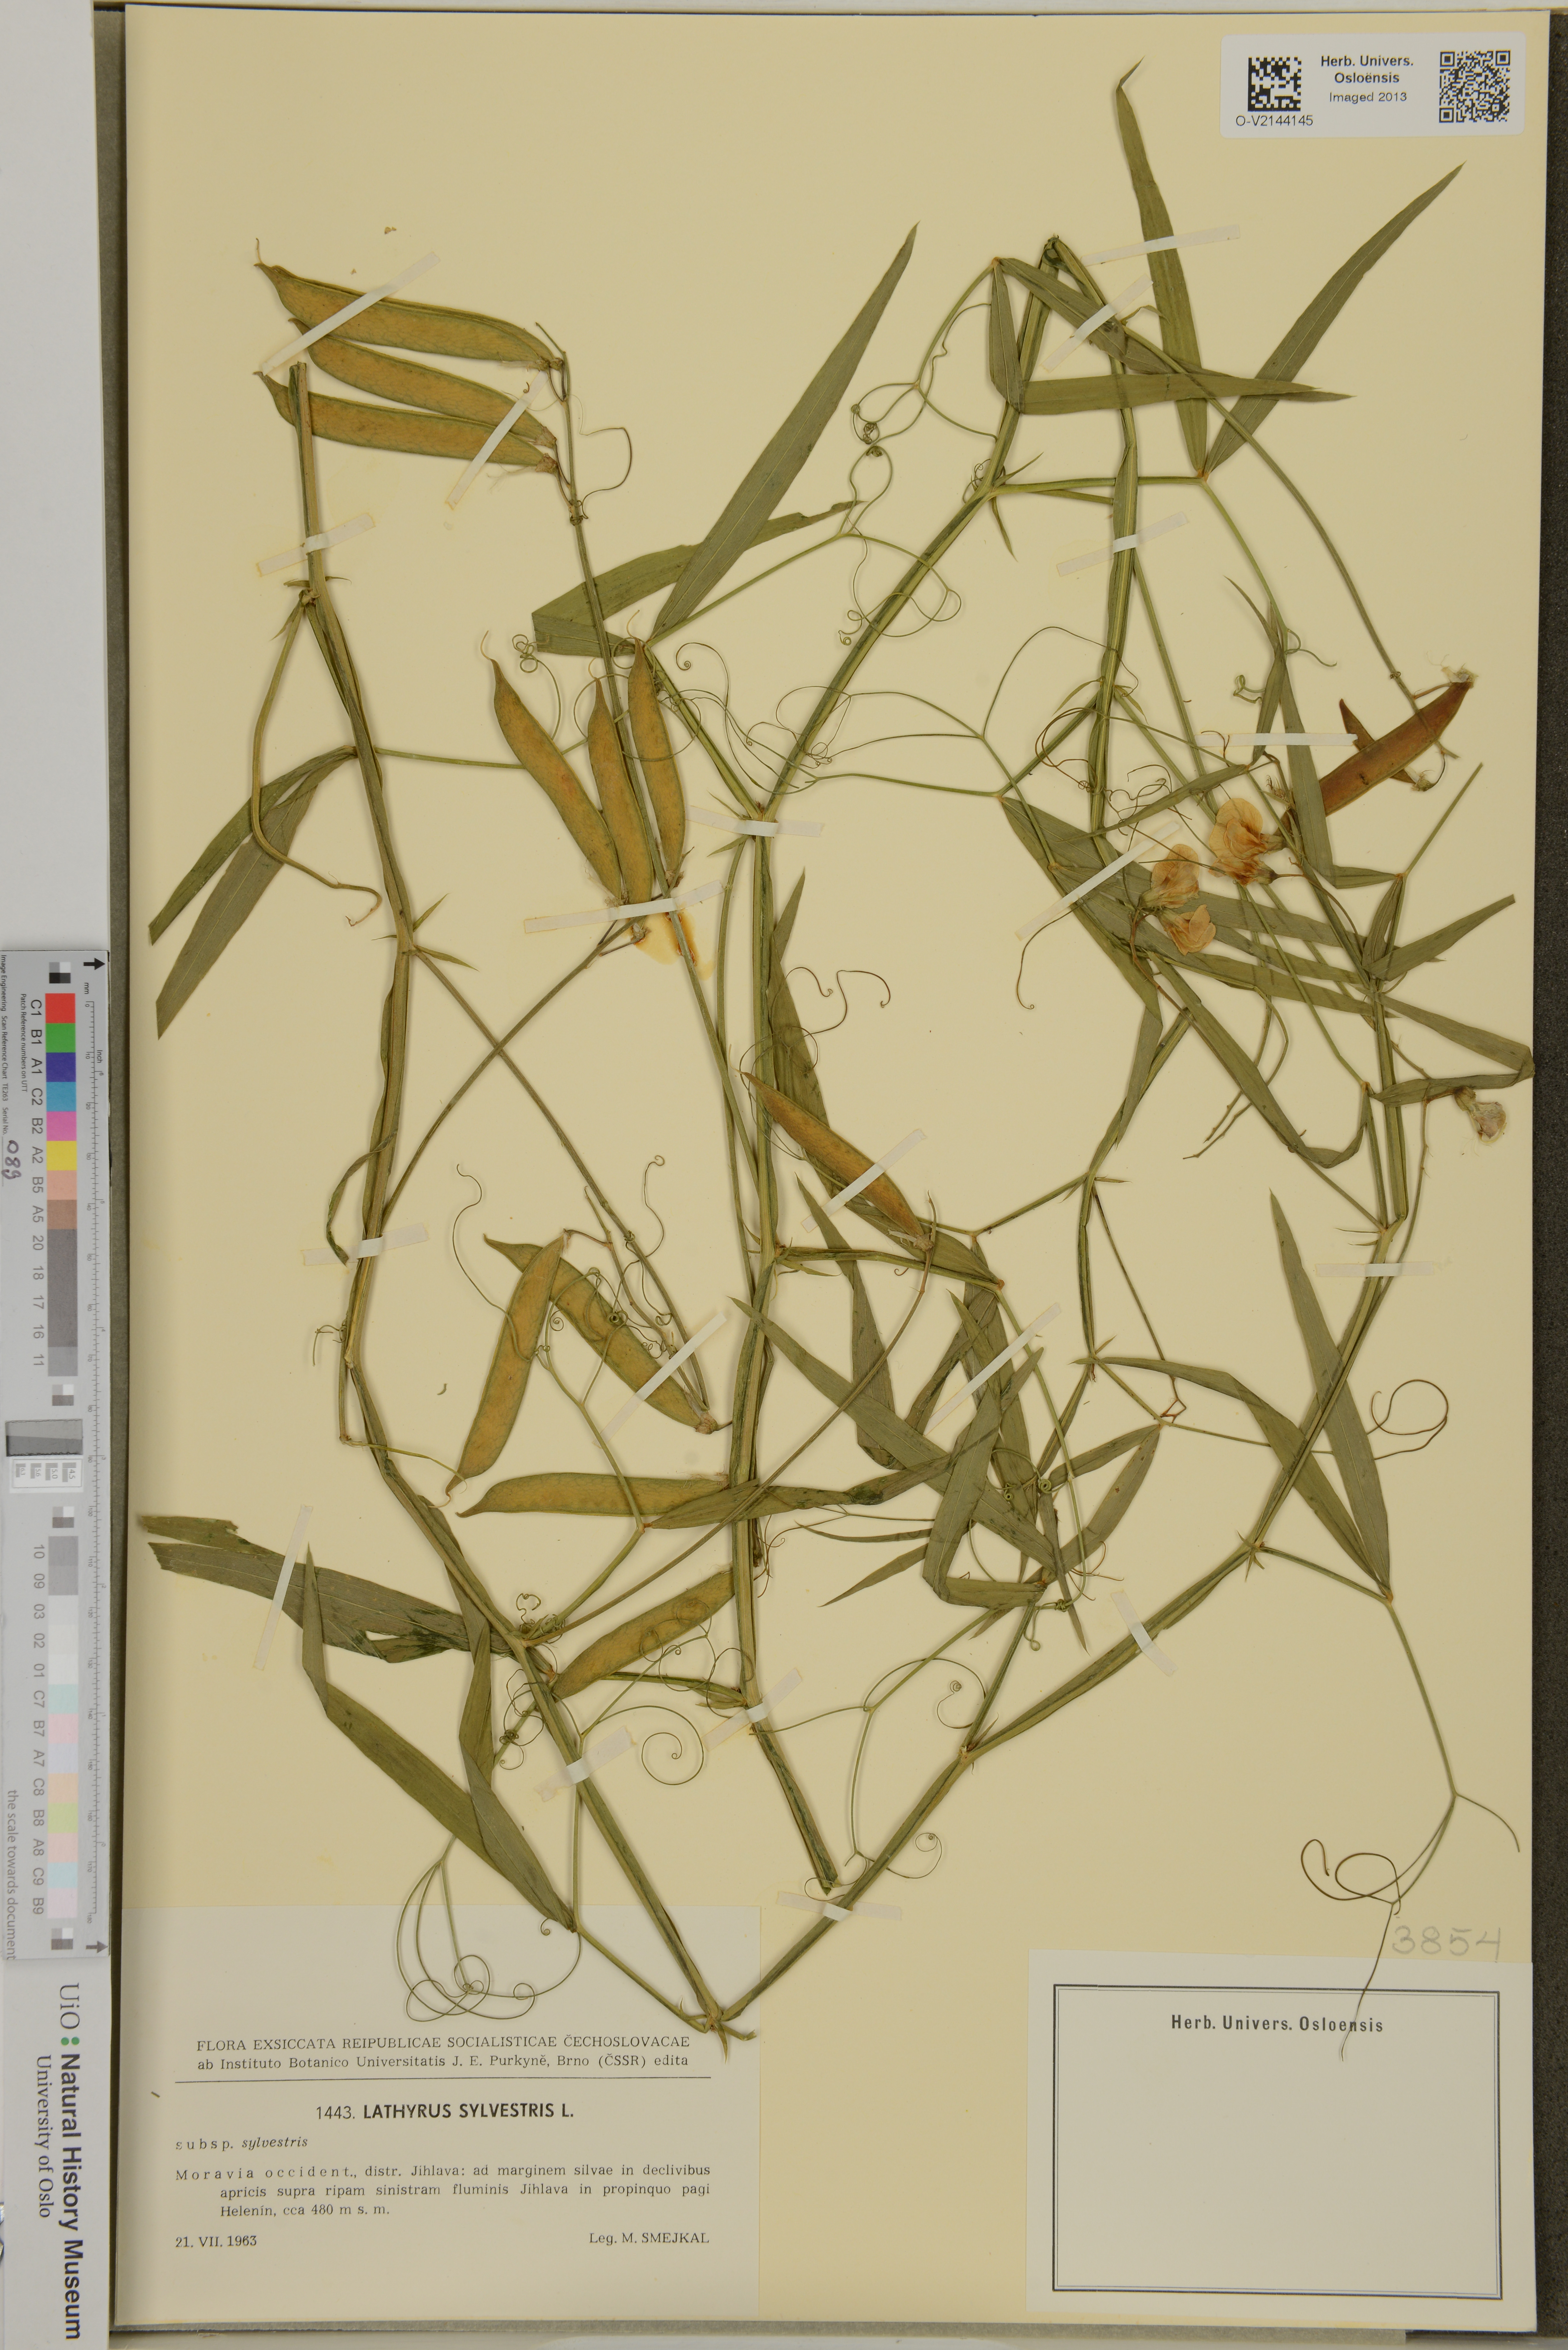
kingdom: Plantae
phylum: Tracheophyta
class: Magnoliopsida
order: Fabales
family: Fabaceae
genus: Lathyrus
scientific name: Lathyrus sylvestris
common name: Flat pea
